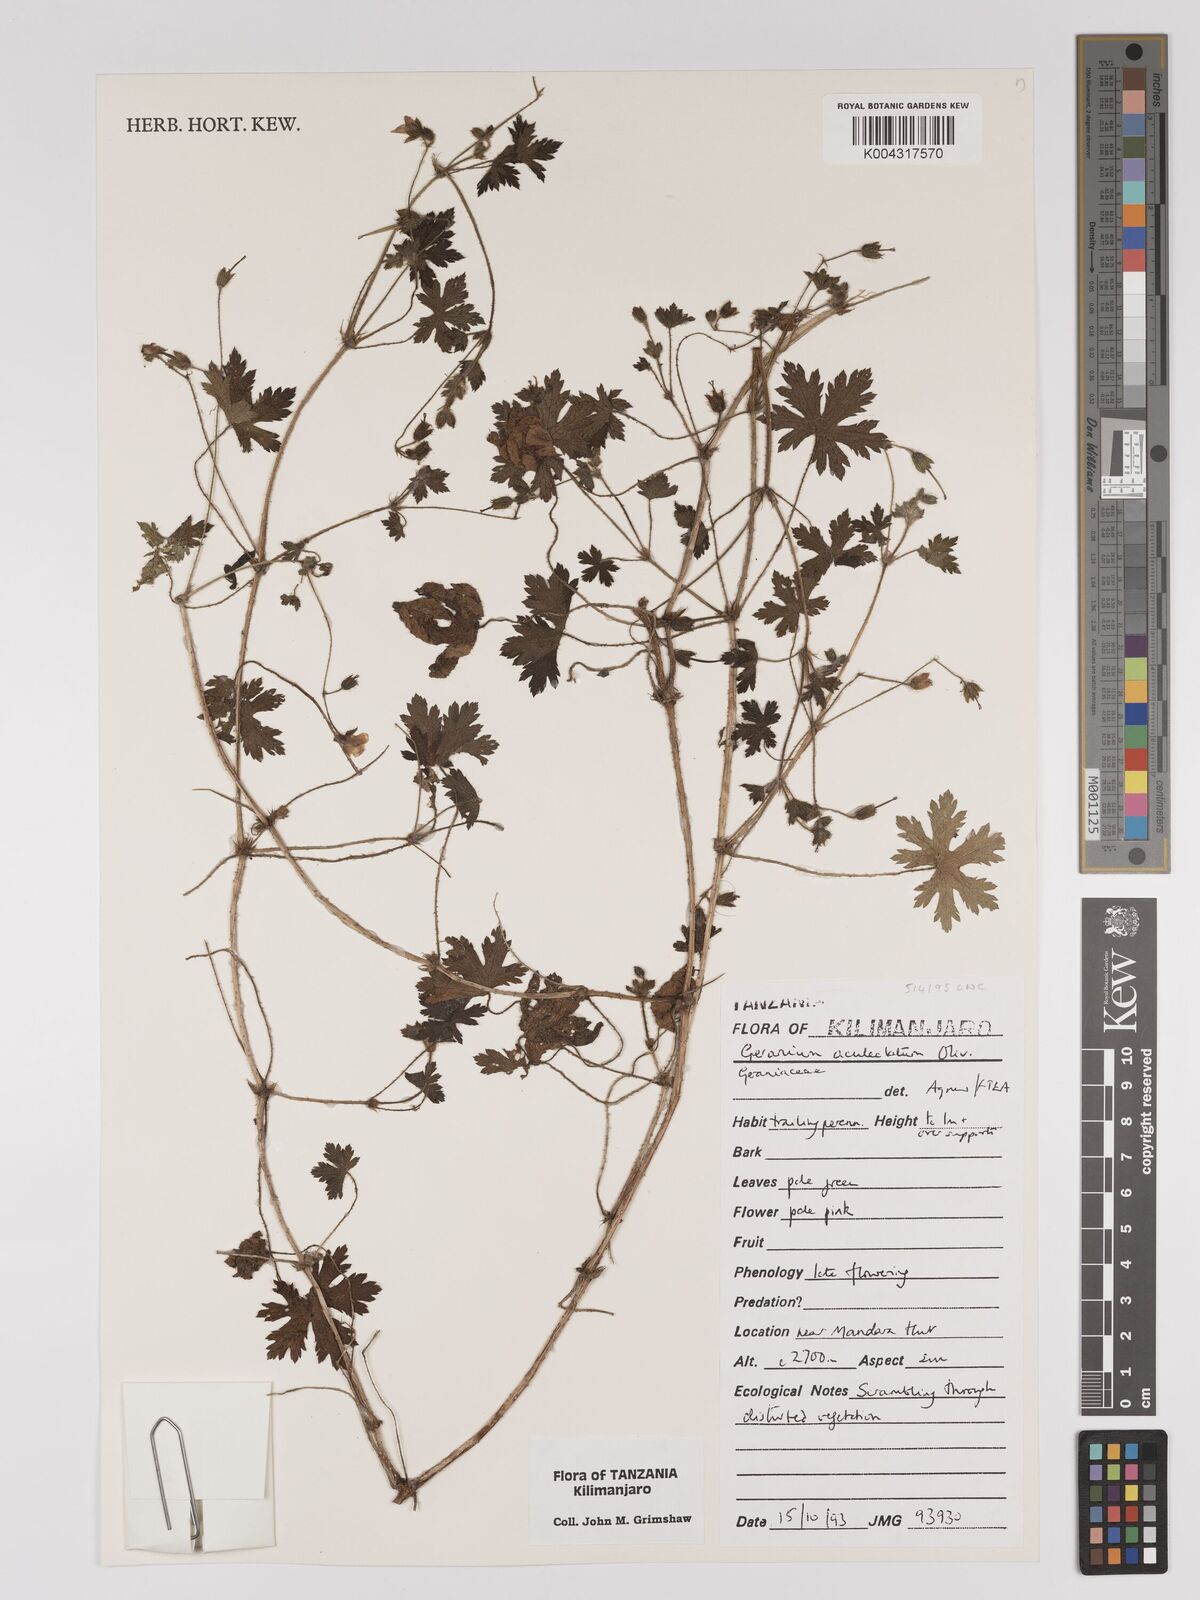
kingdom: Plantae
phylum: Tracheophyta
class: Magnoliopsida
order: Geraniales
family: Geraniaceae
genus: Geranium
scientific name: Geranium aculeolatum
